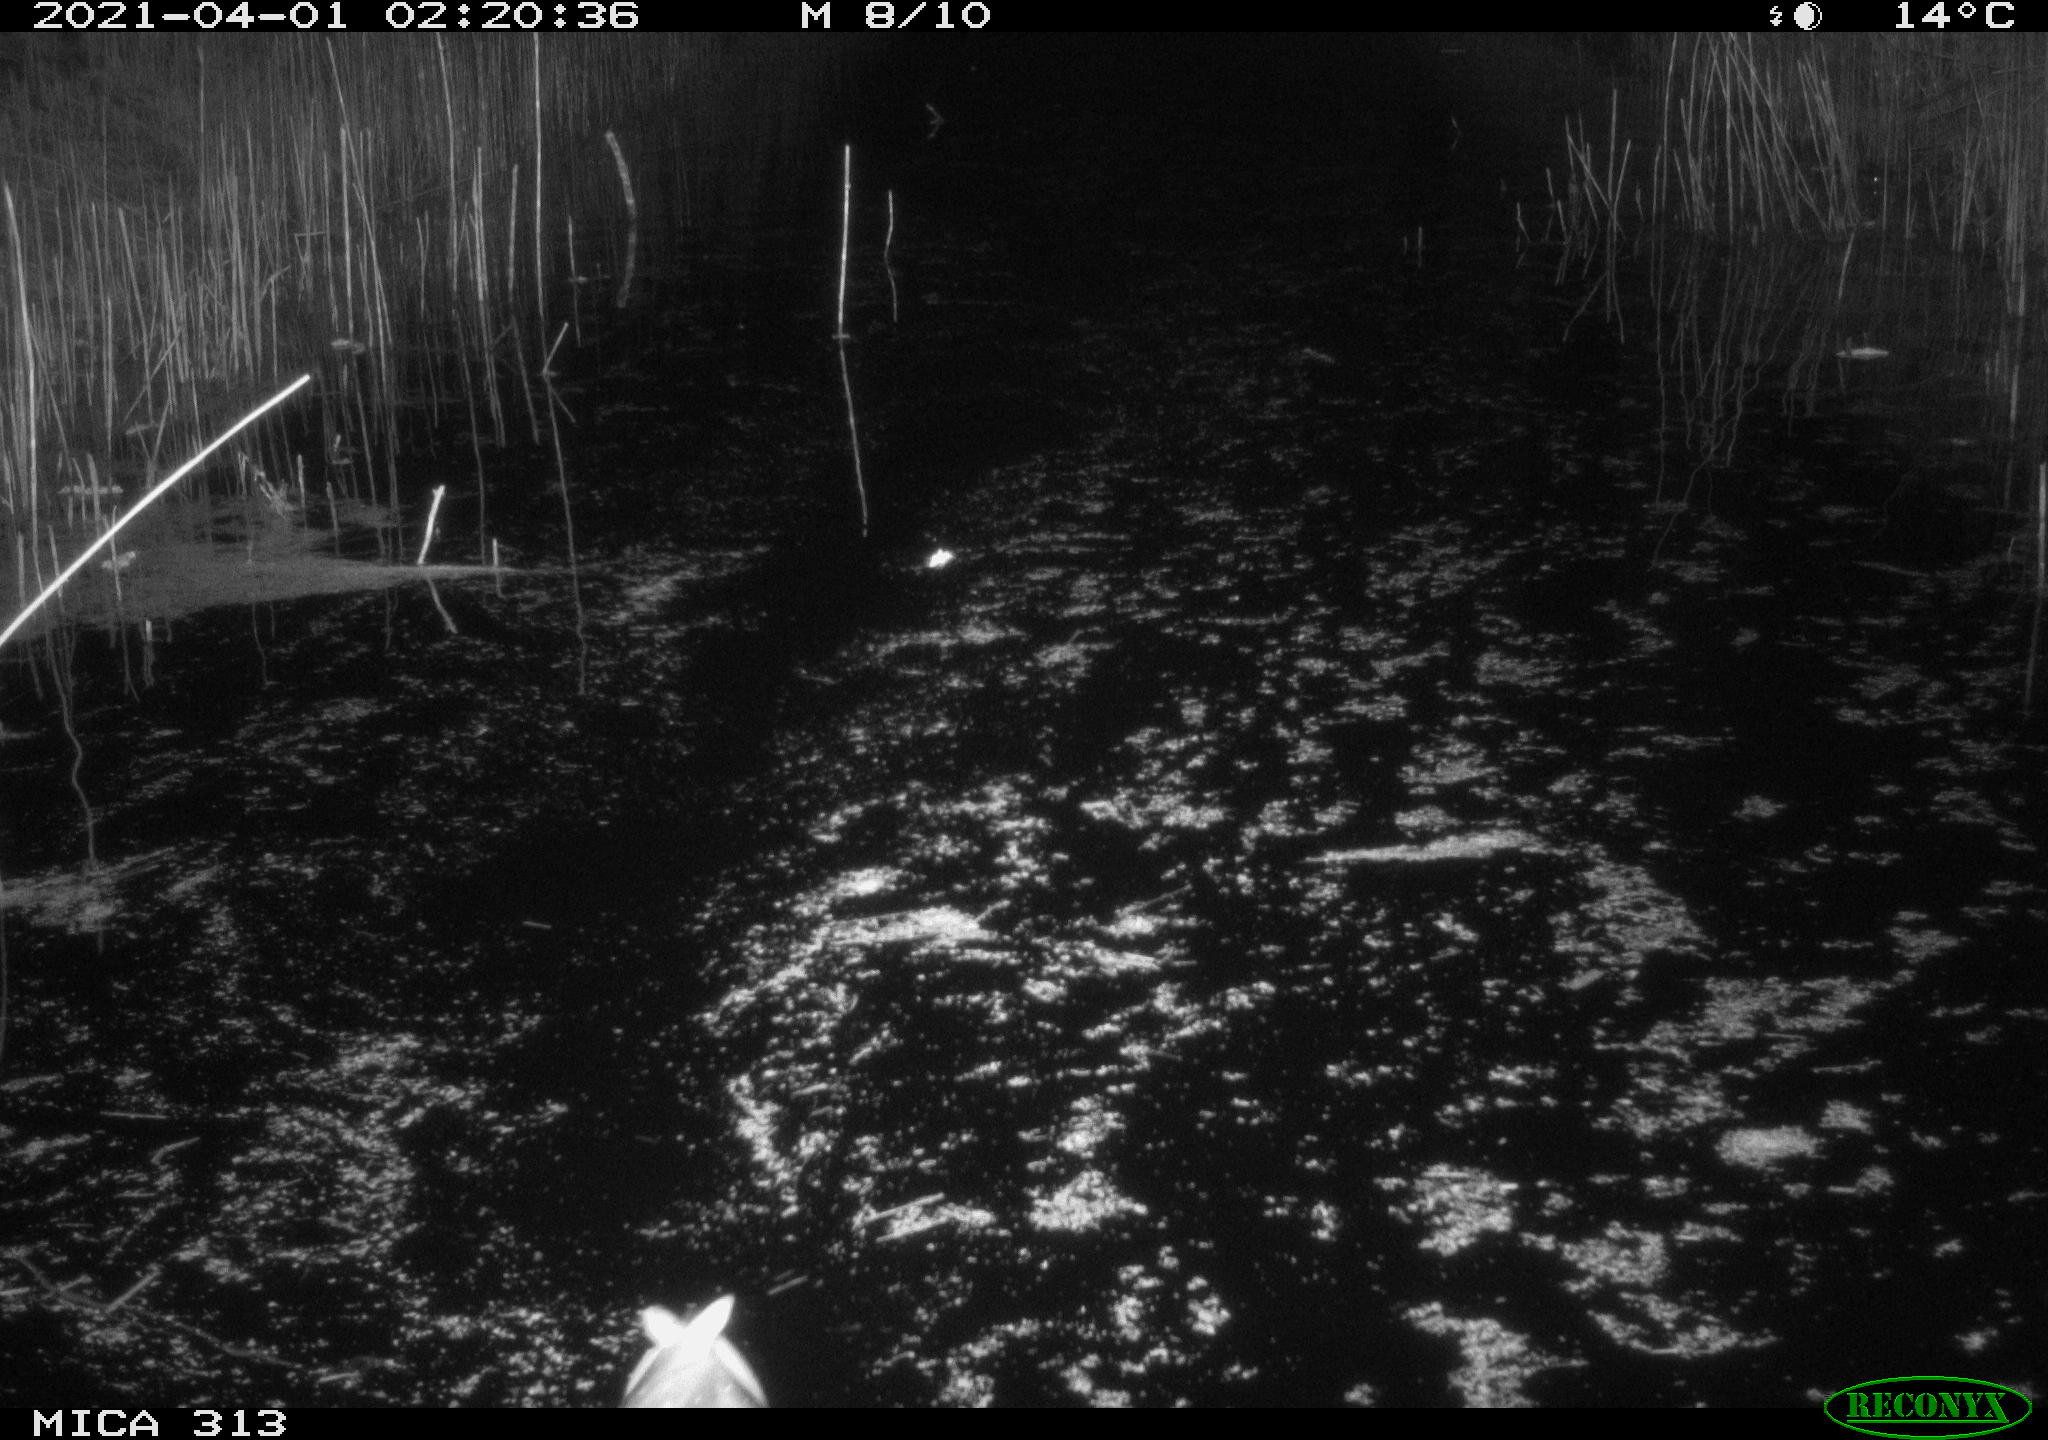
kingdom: Animalia
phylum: Chordata
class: Aves
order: Gruiformes
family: Rallidae
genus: Fulica
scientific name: Fulica atra
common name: Eurasian coot
